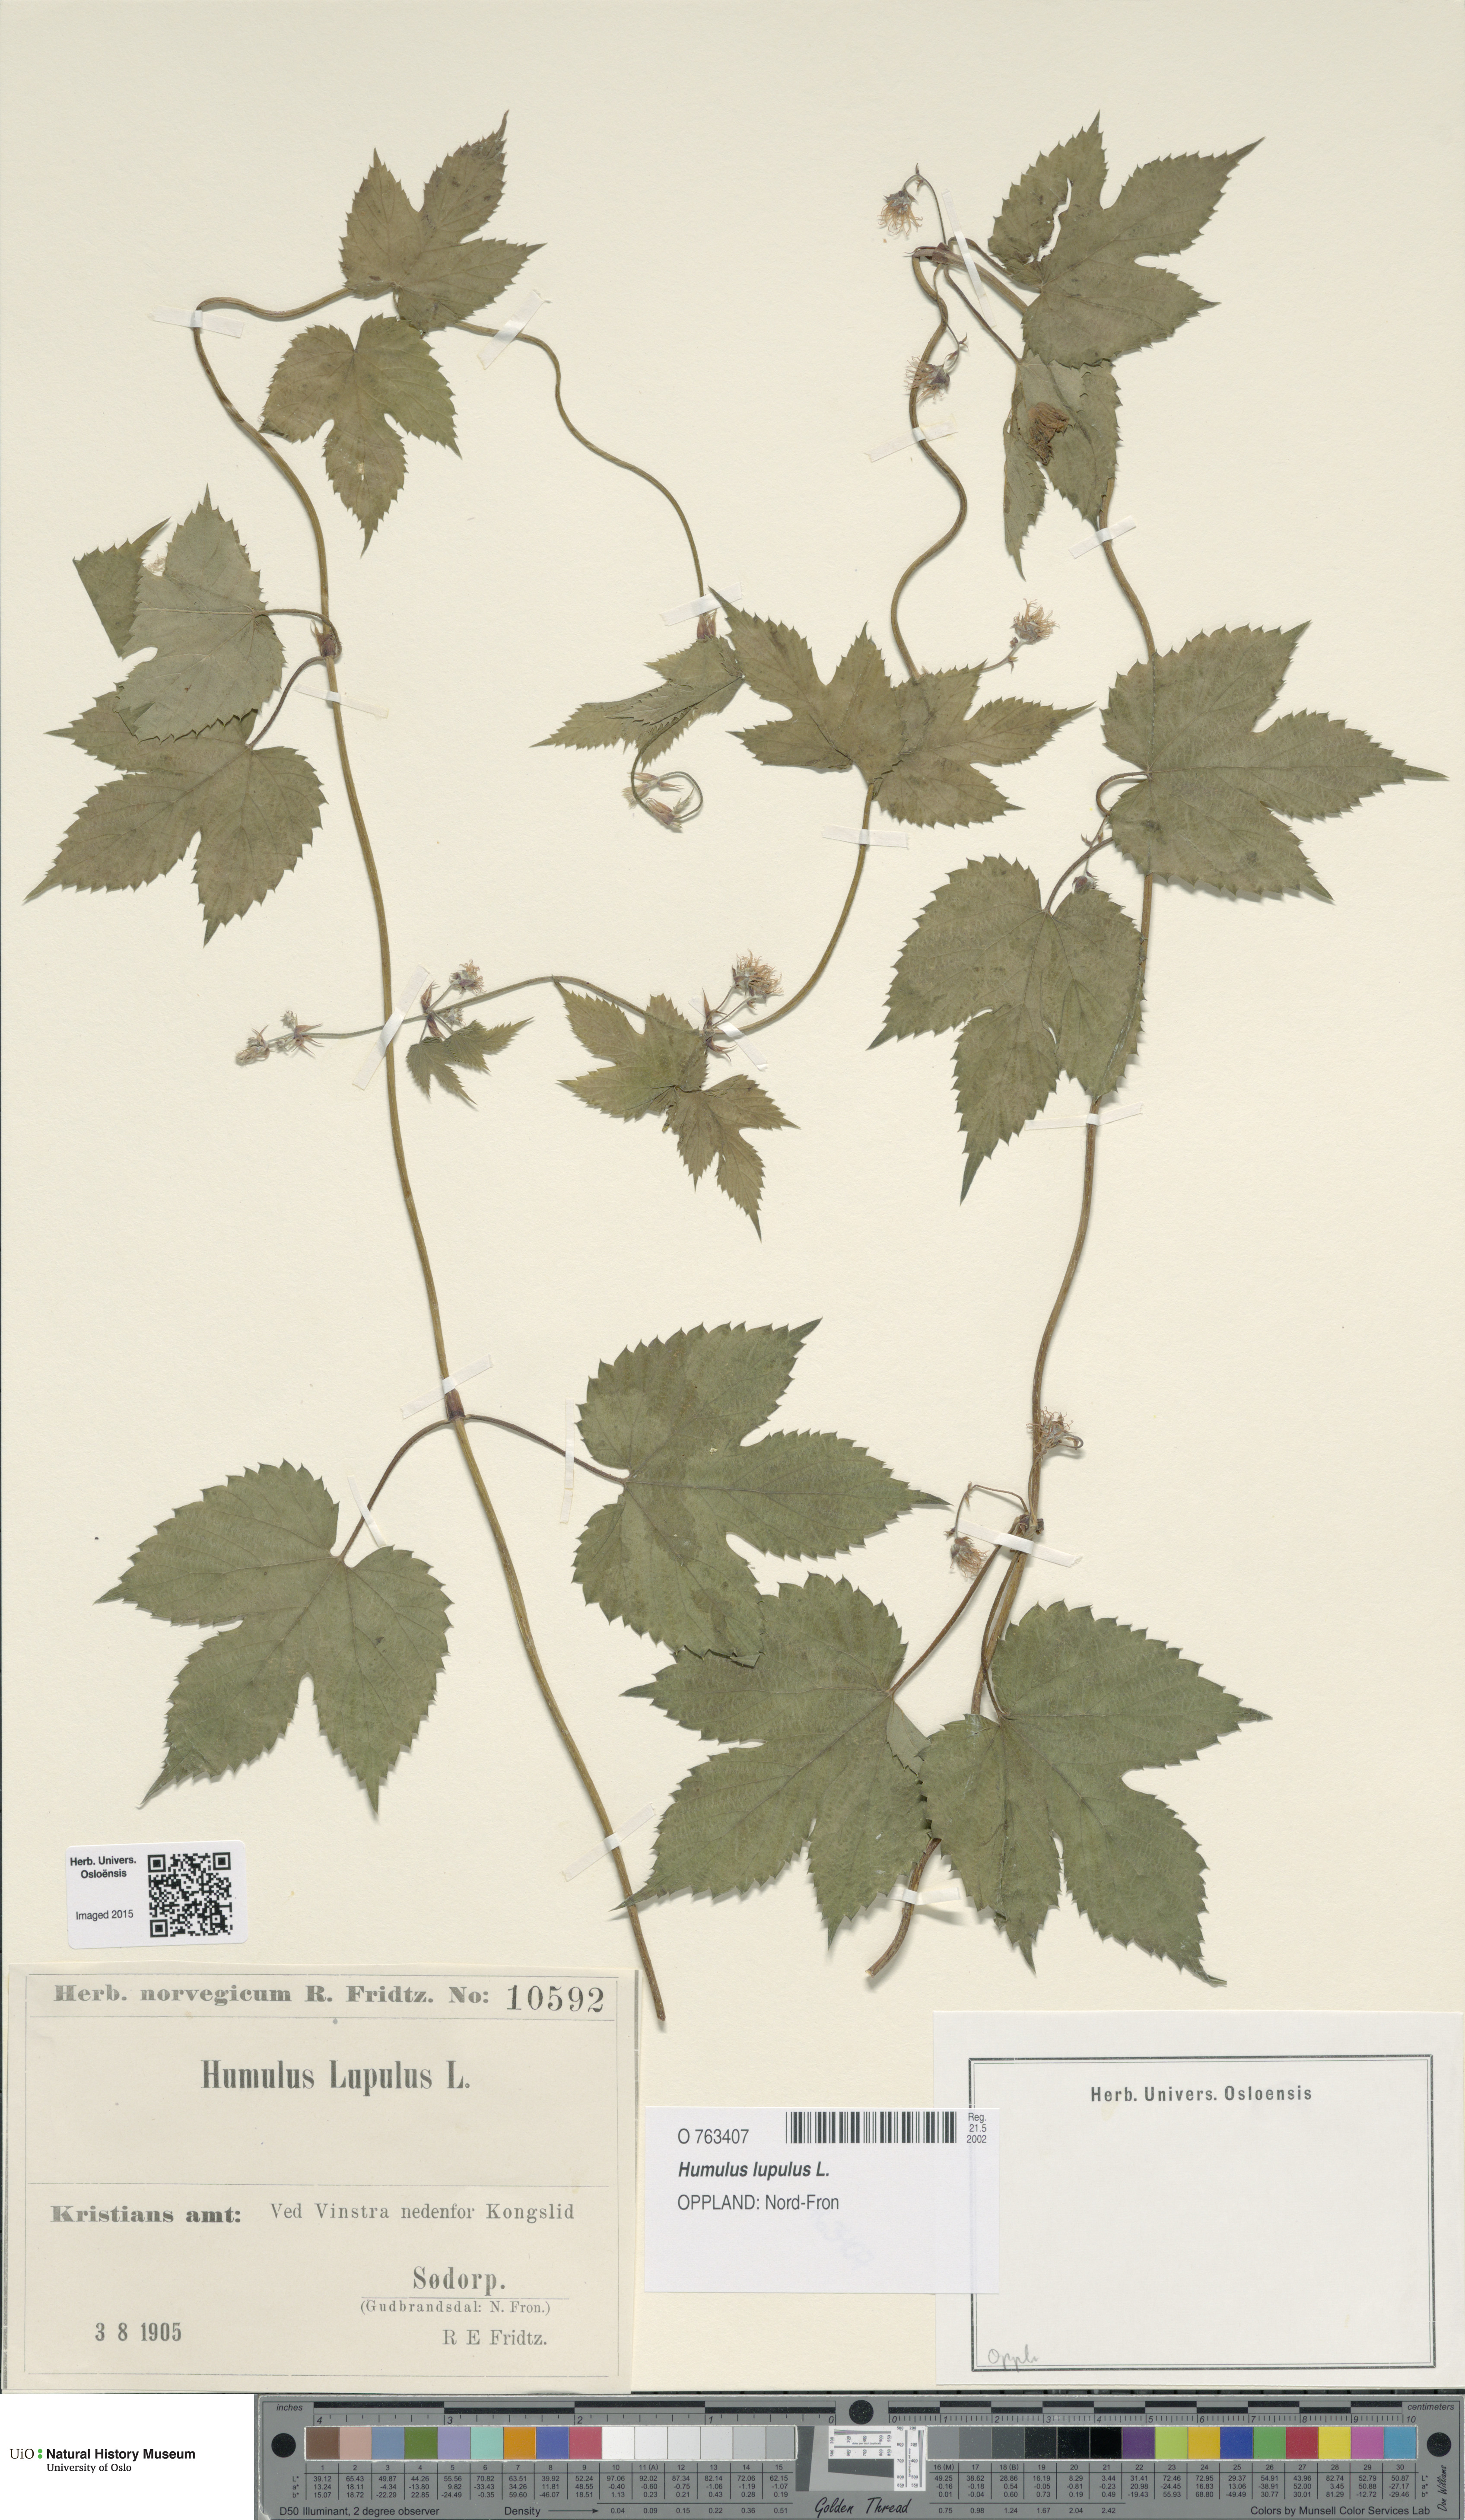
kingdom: Plantae
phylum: Tracheophyta
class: Magnoliopsida
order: Rosales
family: Cannabaceae
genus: Humulus
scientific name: Humulus lupulus
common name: Hop
